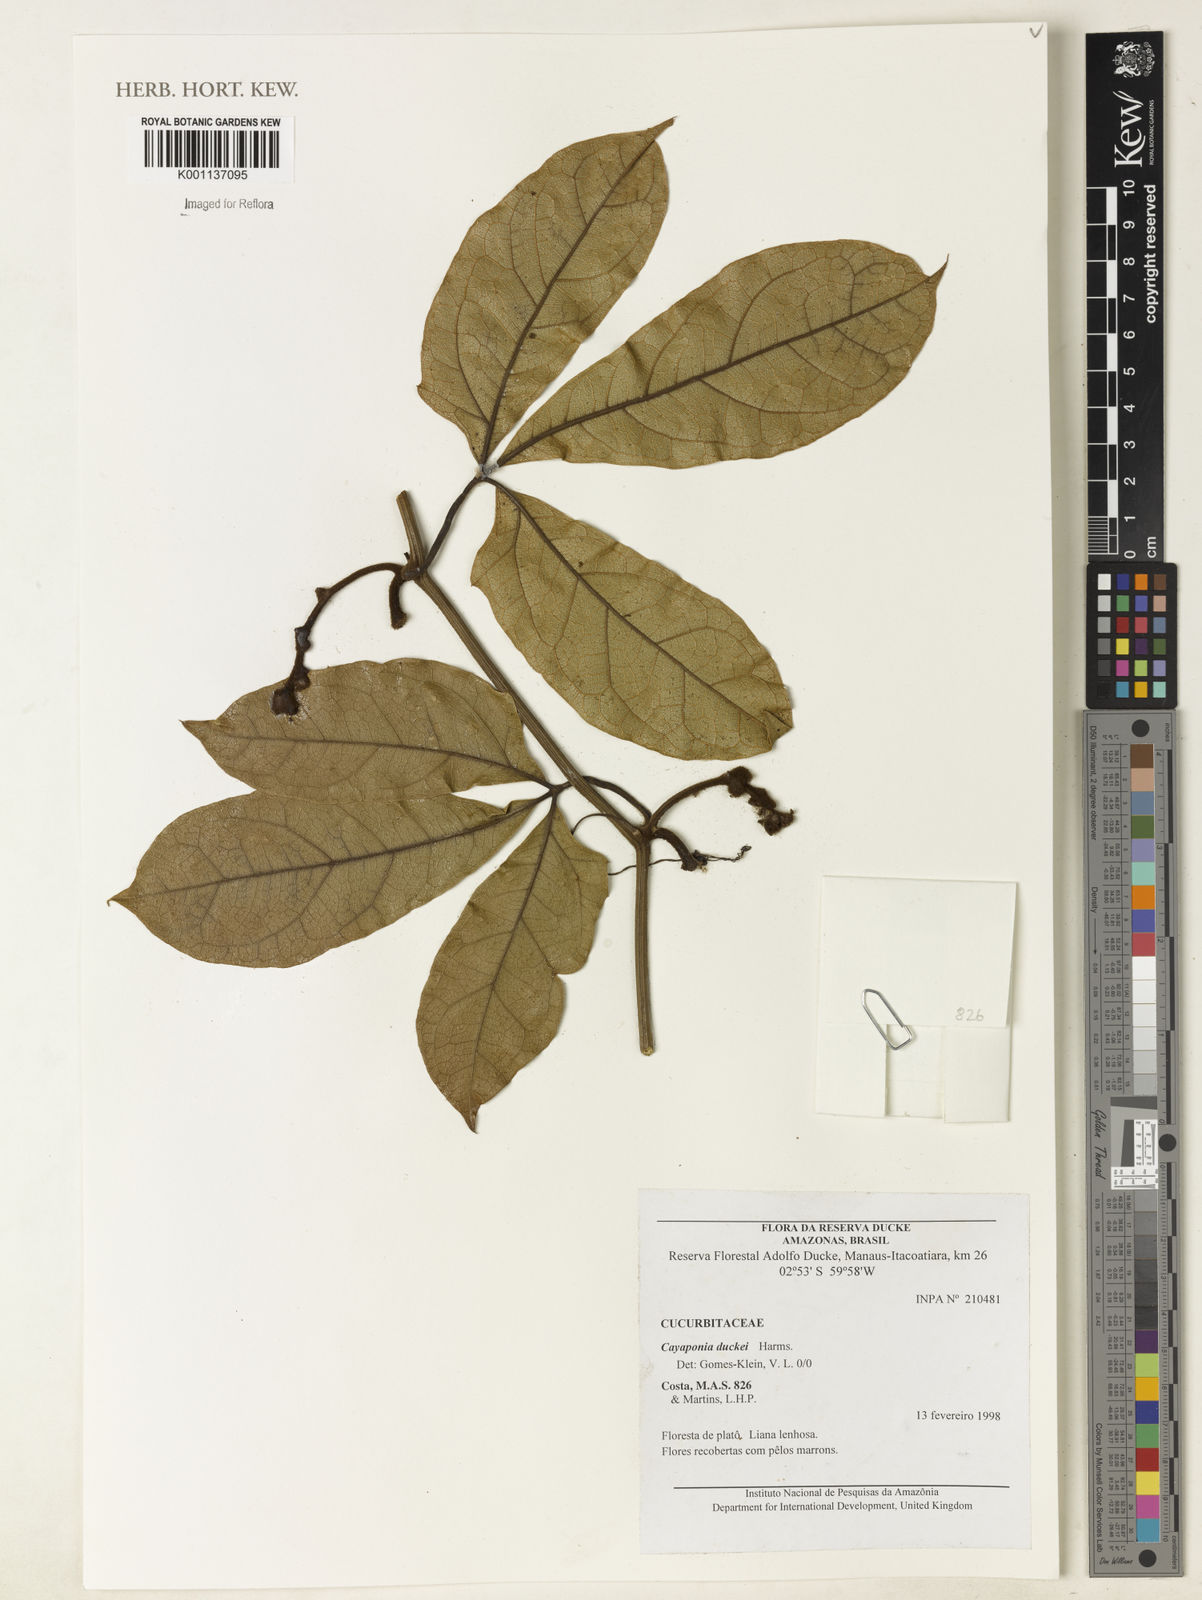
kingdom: Plantae
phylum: Tracheophyta
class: Magnoliopsida
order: Cucurbitales
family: Cucurbitaceae
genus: Cayaponia
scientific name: Cayaponia duckei
